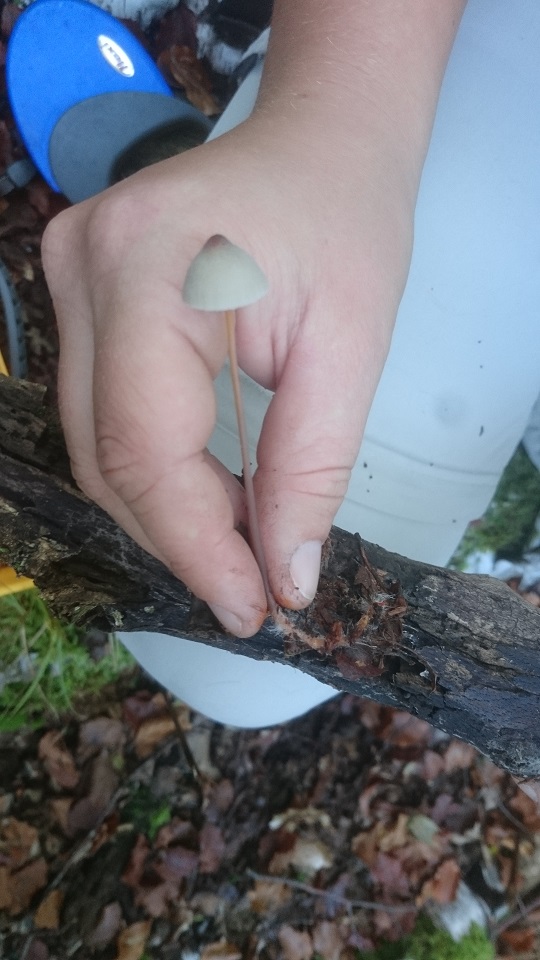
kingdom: Fungi
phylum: Basidiomycota
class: Agaricomycetes
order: Agaricales
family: Mycenaceae
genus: Mycena
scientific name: Mycena crocata
